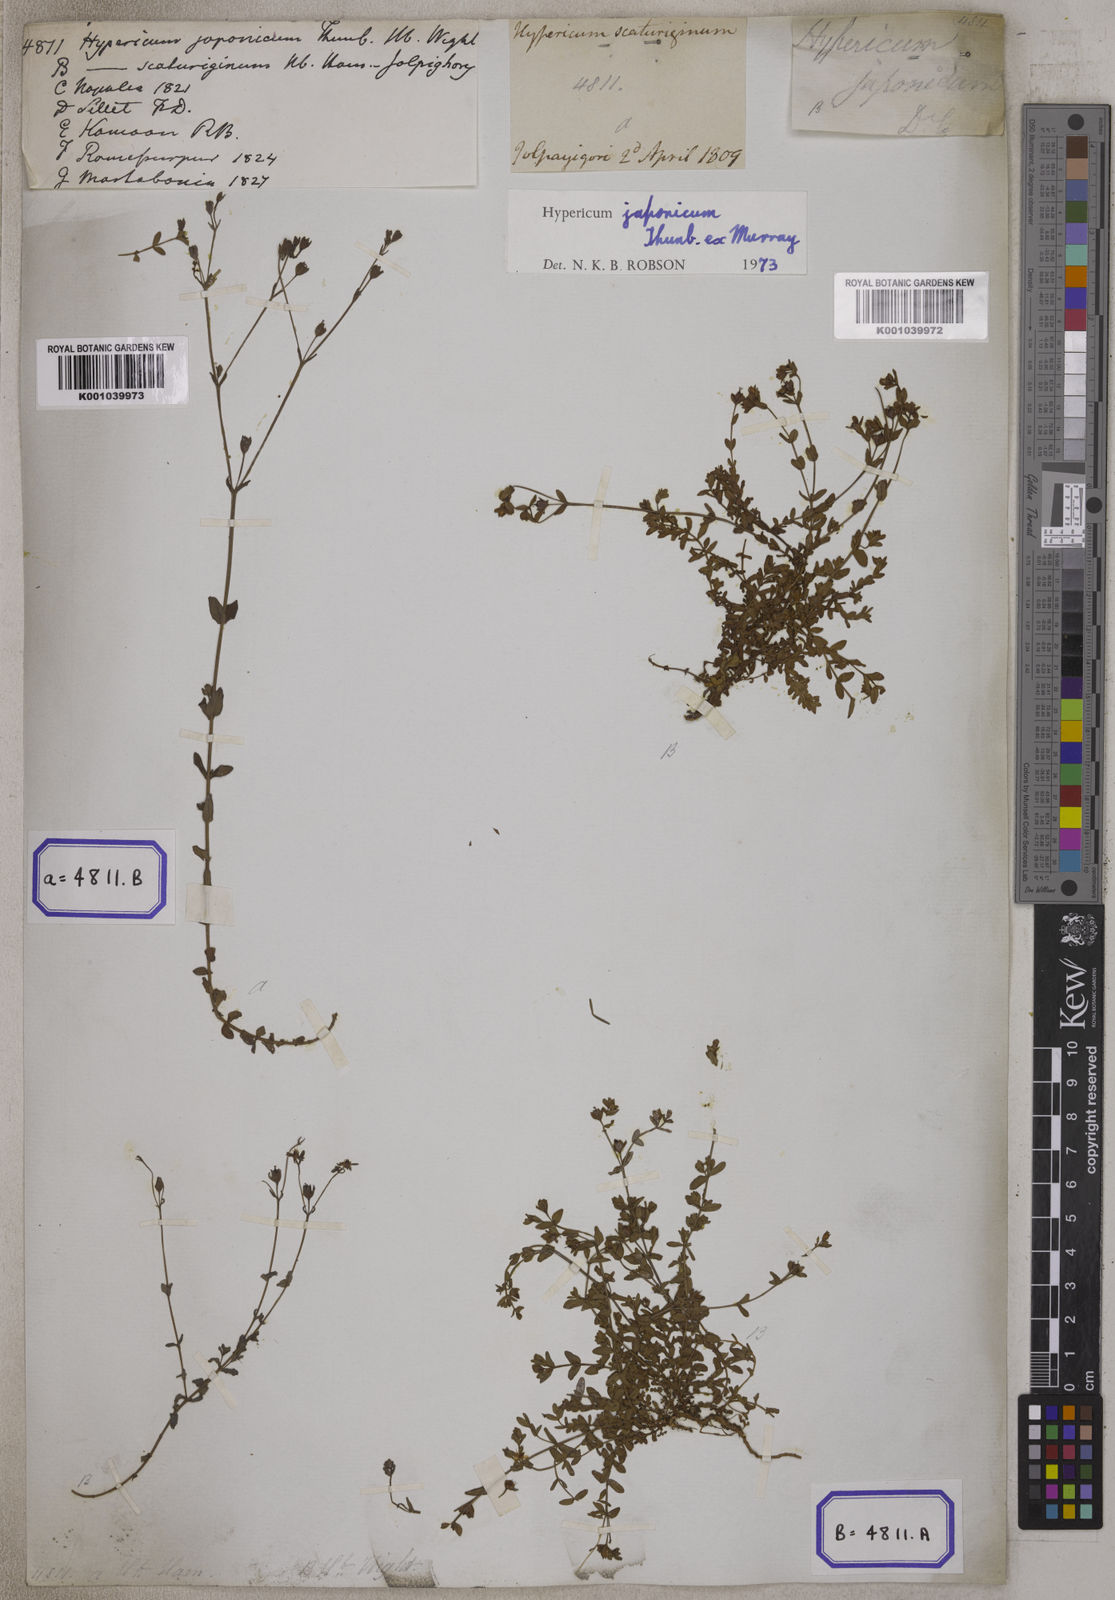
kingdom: Plantae
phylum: Tracheophyta
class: Magnoliopsida
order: Malpighiales
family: Hypericaceae
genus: Hypericum
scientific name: Hypericum japonicum
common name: Matted st. john's-wort
